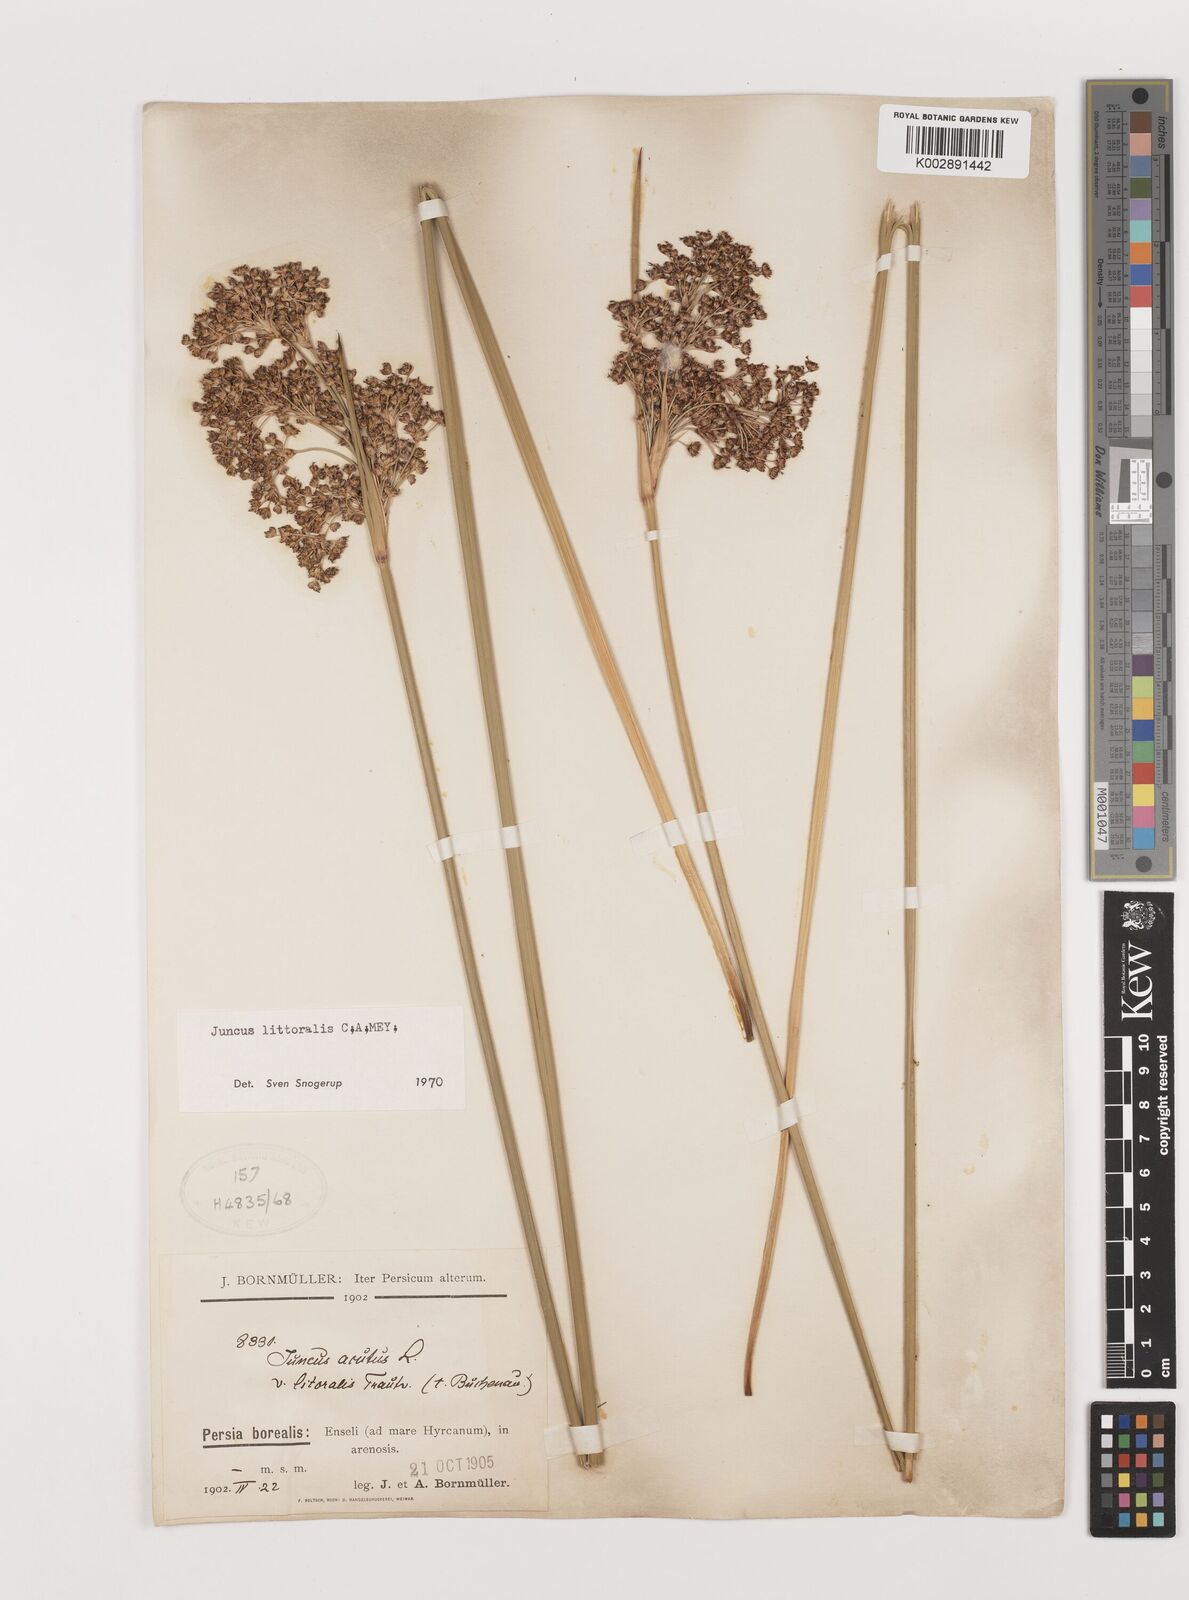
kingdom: Plantae
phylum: Tracheophyta
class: Liliopsida
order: Poales
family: Juncaceae
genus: Juncus
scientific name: Juncus littoralis
